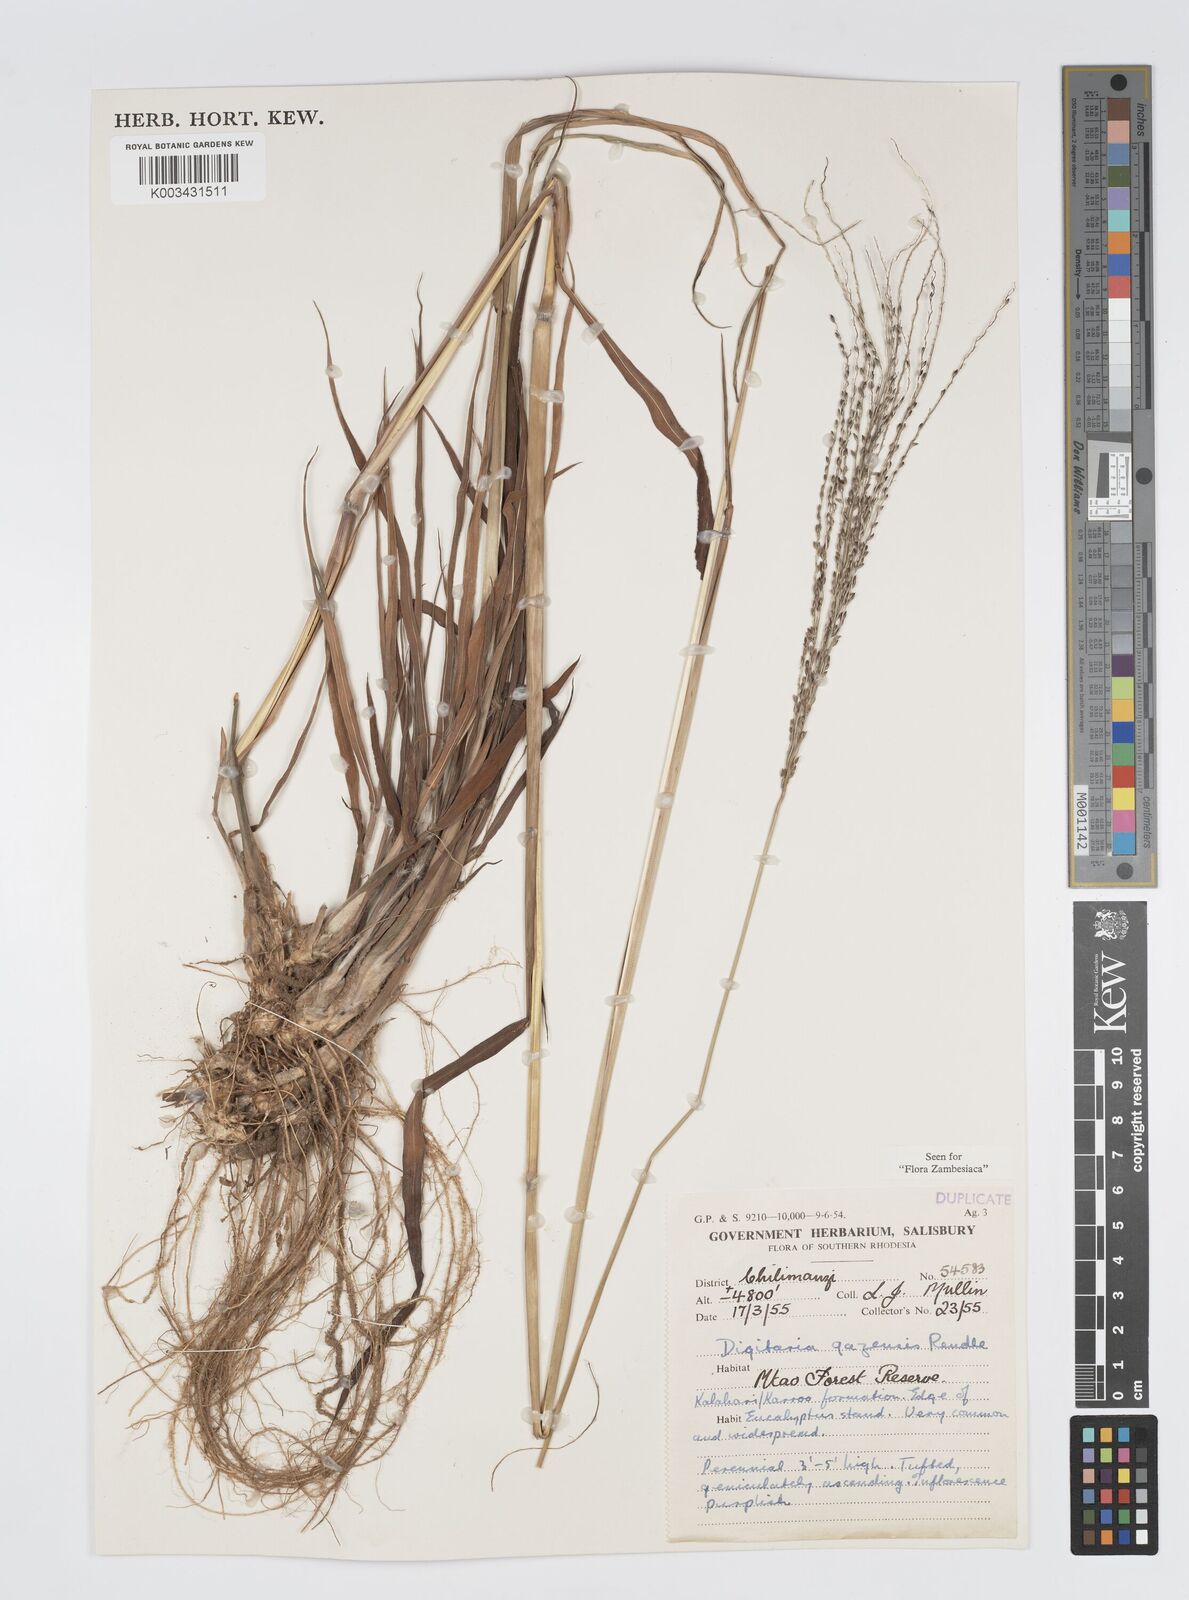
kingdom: Plantae
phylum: Tracheophyta
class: Liliopsida
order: Poales
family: Poaceae
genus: Digitaria
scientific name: Digitaria gazensis
